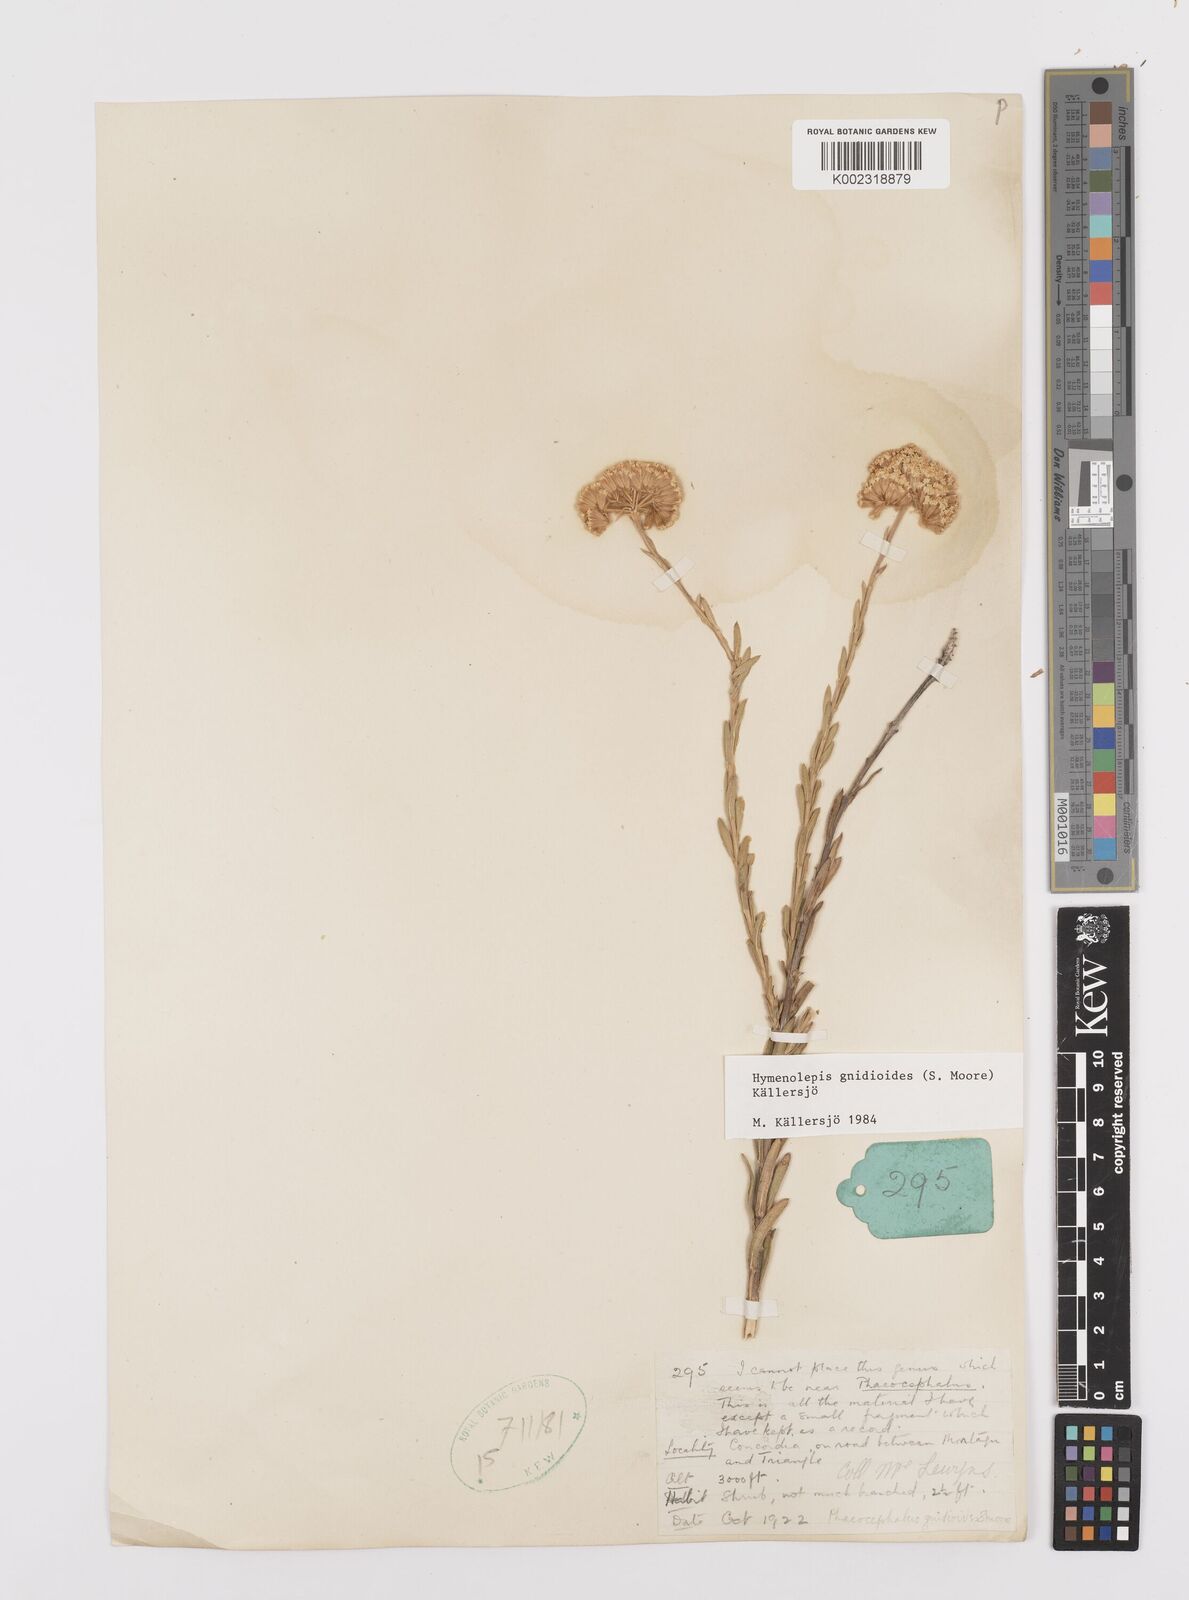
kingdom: Plantae
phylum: Tracheophyta
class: Magnoliopsida
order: Asterales
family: Asteraceae
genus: Hymenolepis
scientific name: Hymenolepis gnidioides
